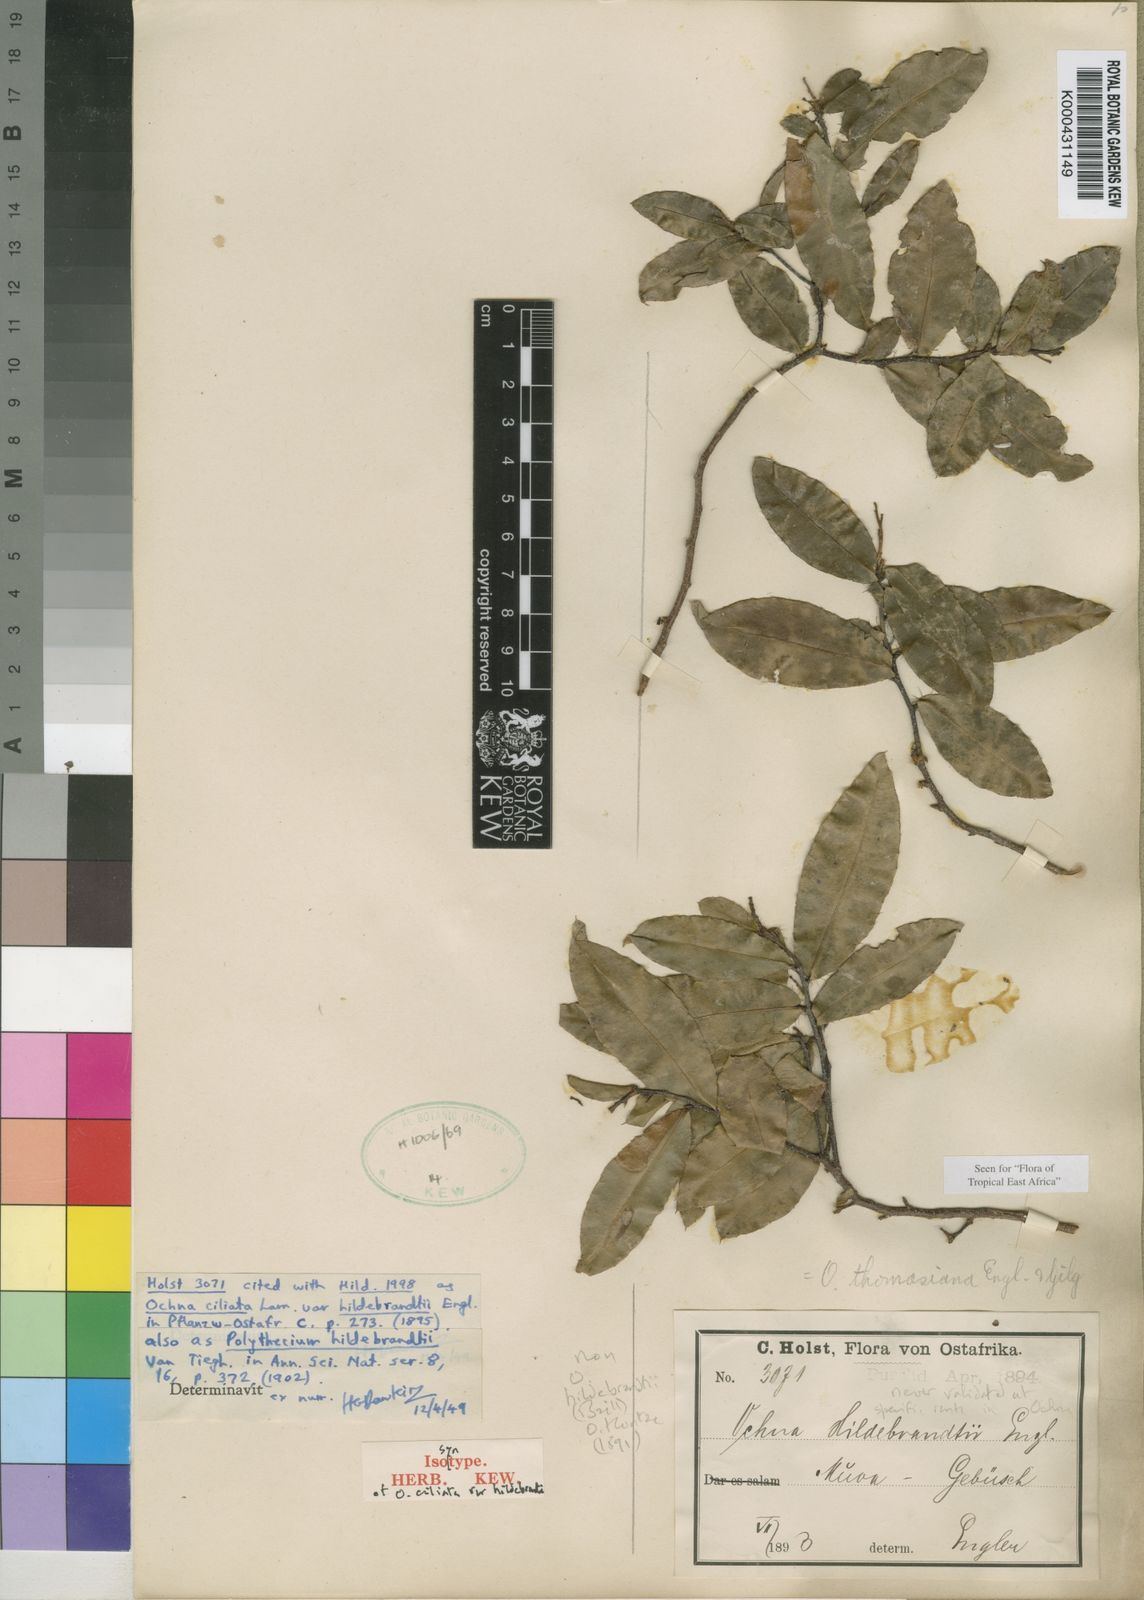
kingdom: Plantae
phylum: Tracheophyta
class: Magnoliopsida
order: Malpighiales
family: Ochnaceae
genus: Ochna
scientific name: Ochna thomasiana
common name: Thomas' bird's-eye bush
